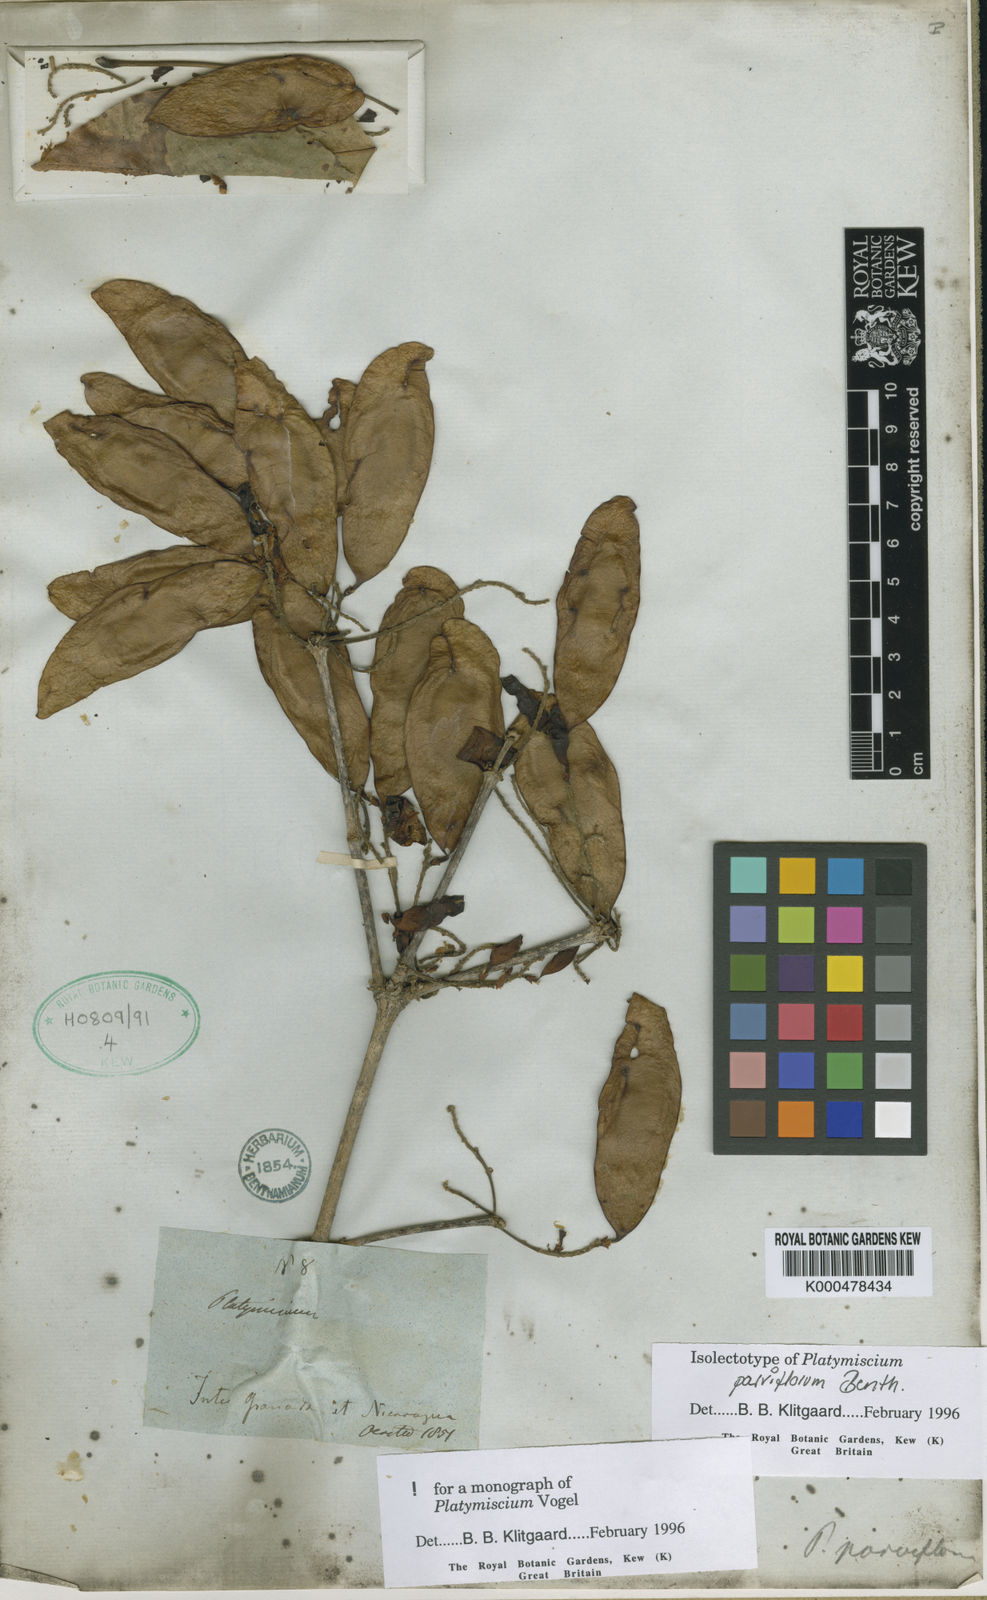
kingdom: Plantae
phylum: Tracheophyta
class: Magnoliopsida
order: Fabales
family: Fabaceae
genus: Platymiscium
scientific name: Platymiscium parviflorum
